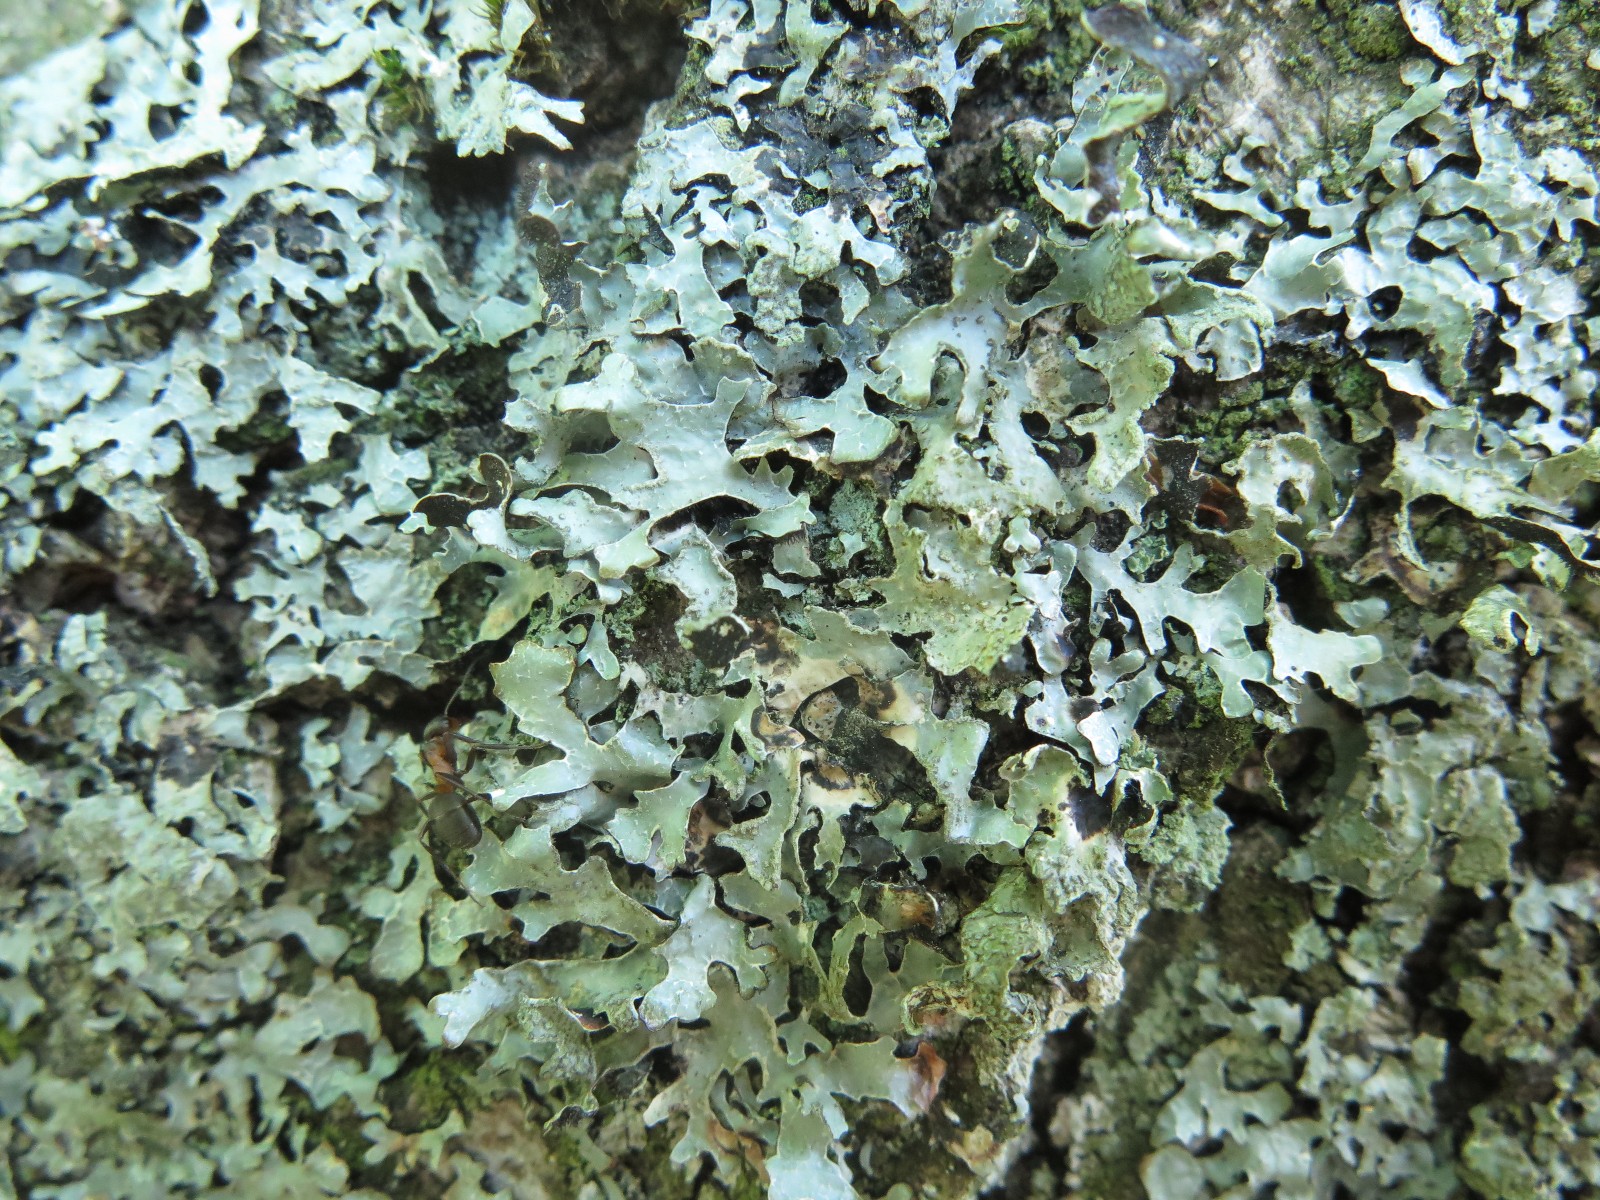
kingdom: Fungi
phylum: Ascomycota
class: Lecanoromycetes
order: Lecanorales
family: Parmeliaceae
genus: Parmelia
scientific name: Parmelia sulcata
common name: rynket skållav
